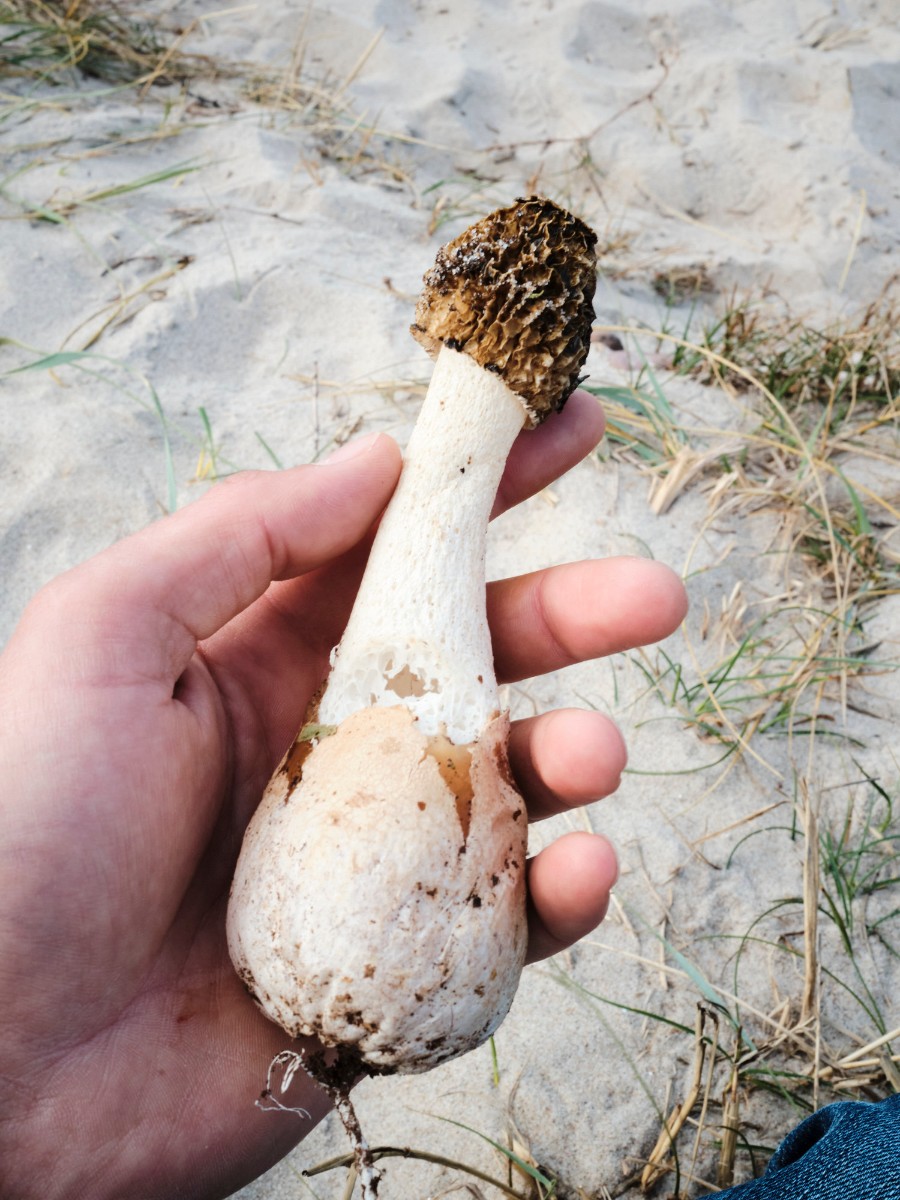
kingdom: Fungi
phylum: Basidiomycota
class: Agaricomycetes
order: Phallales
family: Phallaceae
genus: Phallus
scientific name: Phallus hadriani
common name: sand-stinksvamp
